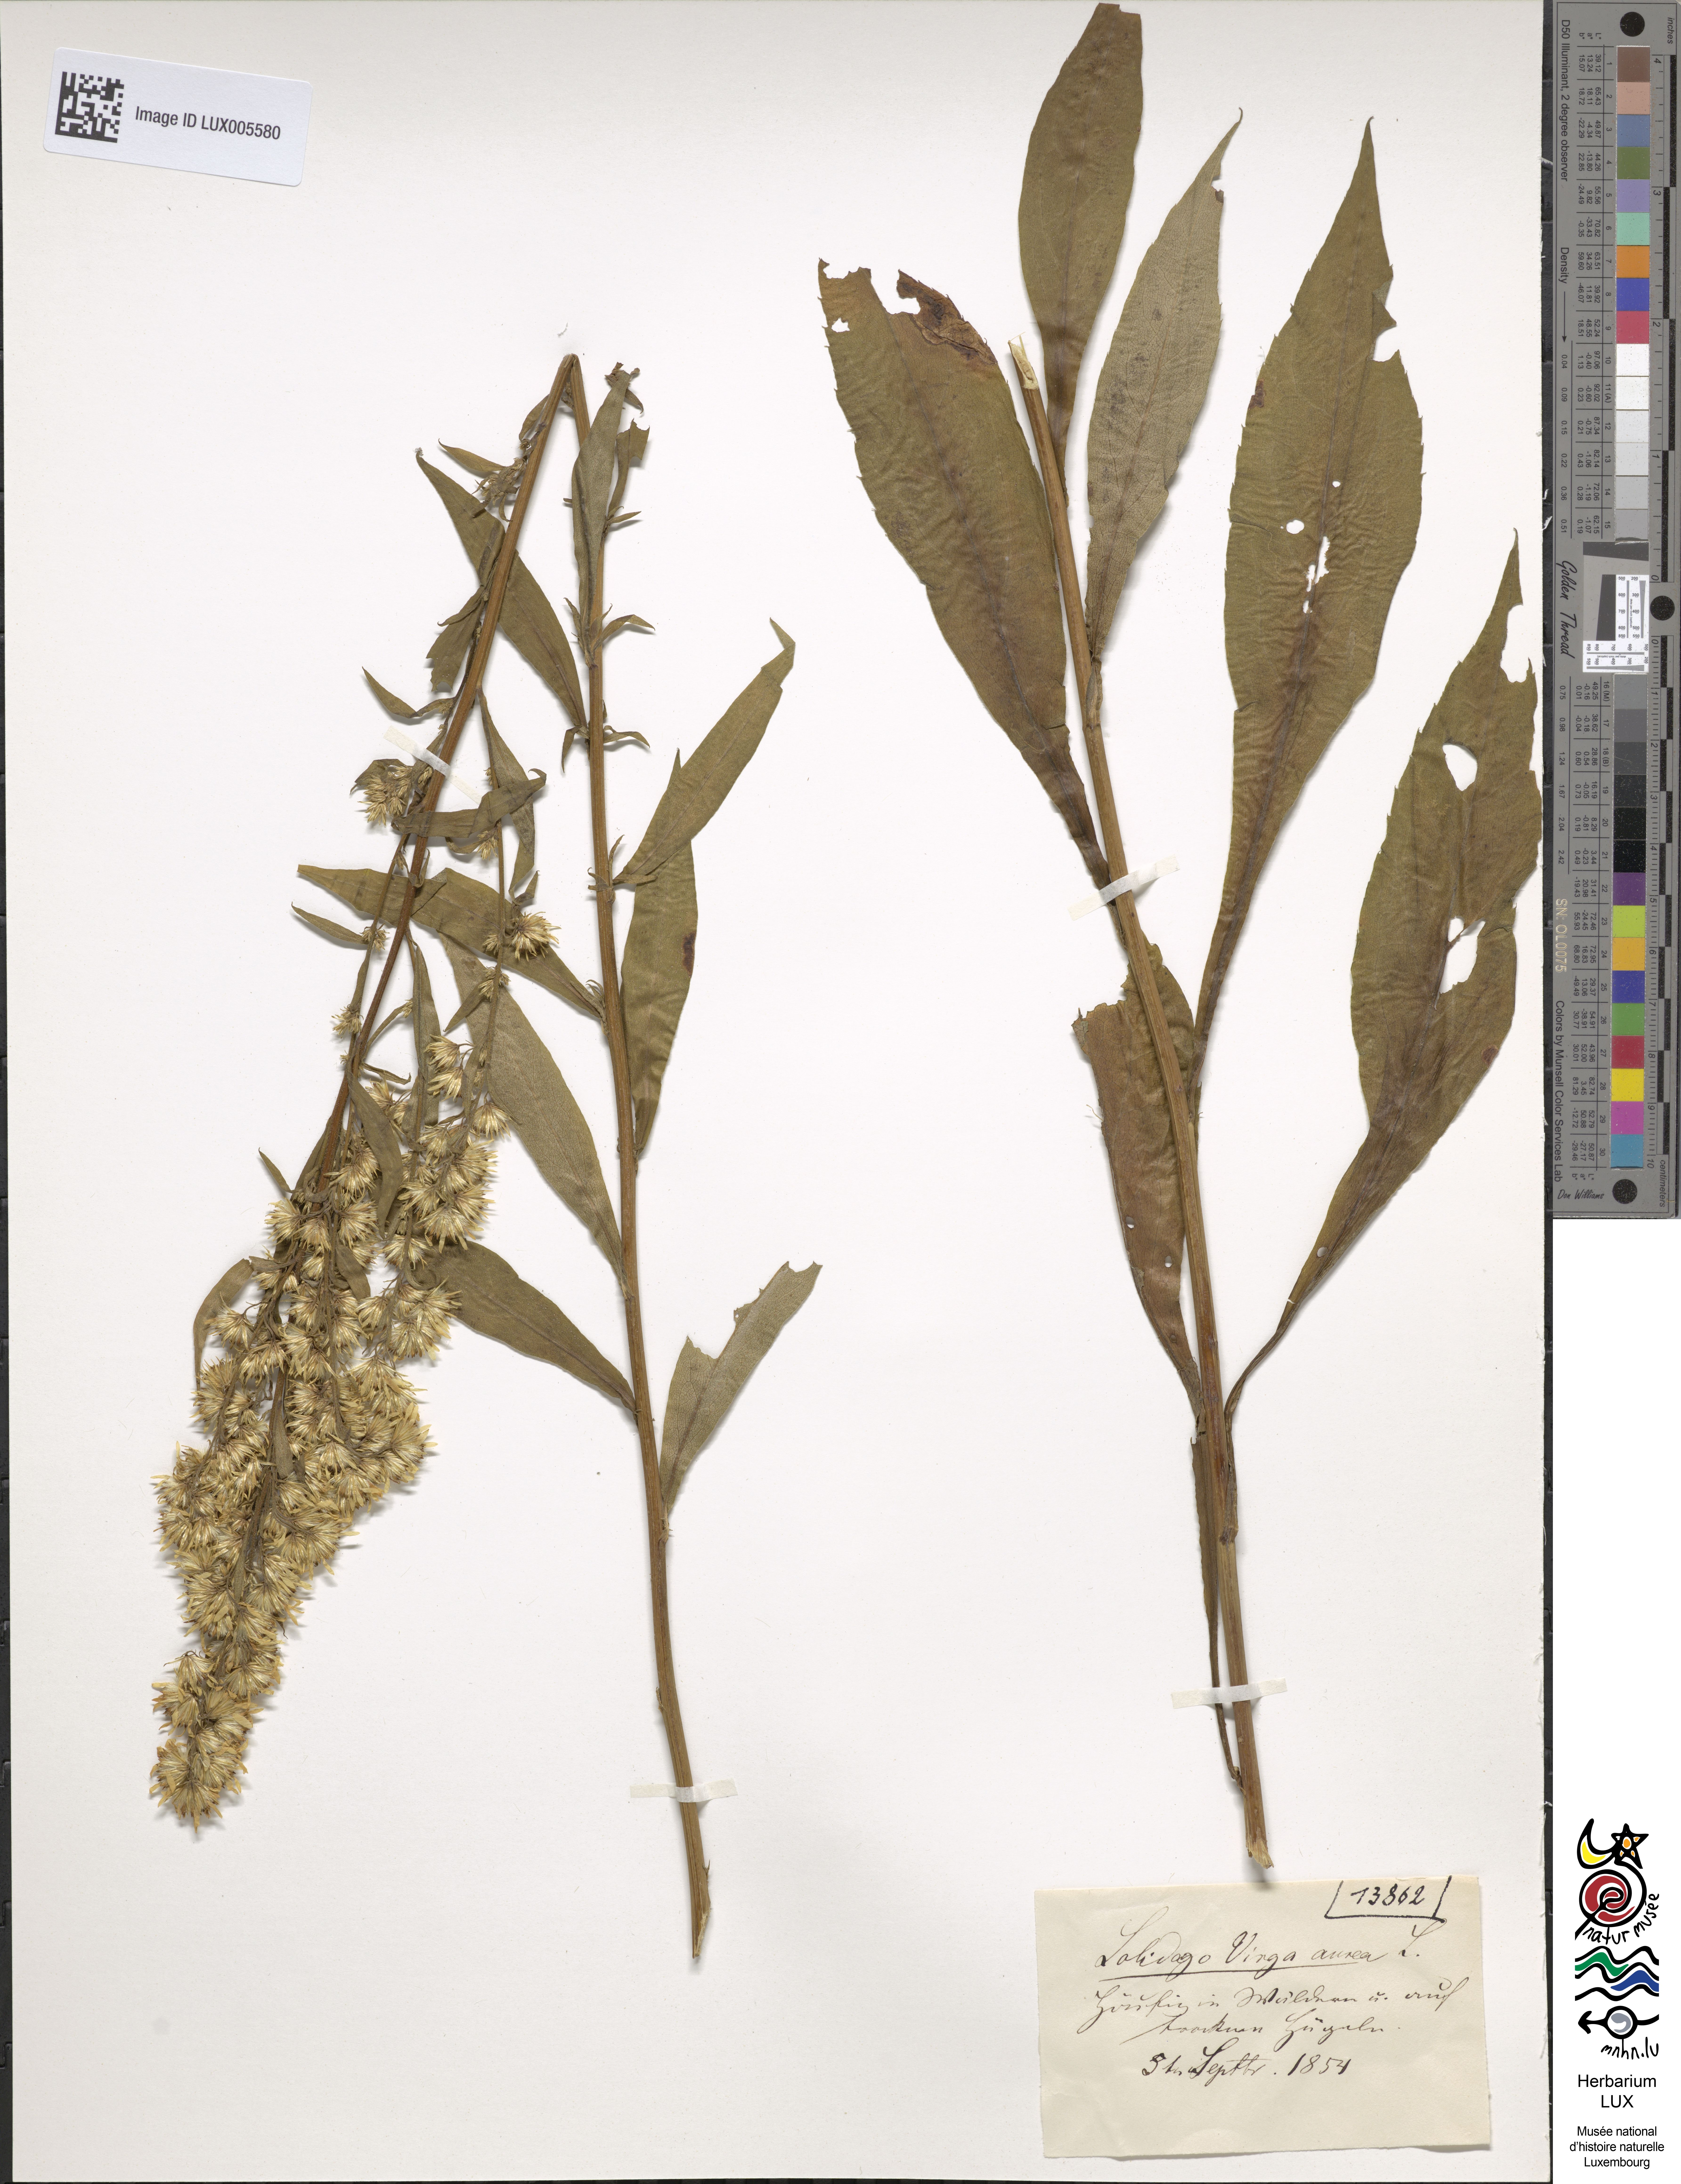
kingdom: Plantae
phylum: Tracheophyta
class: Magnoliopsida
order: Asterales
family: Asteraceae
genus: Solidago
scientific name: Solidago virgaurea
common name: Goldenrod
